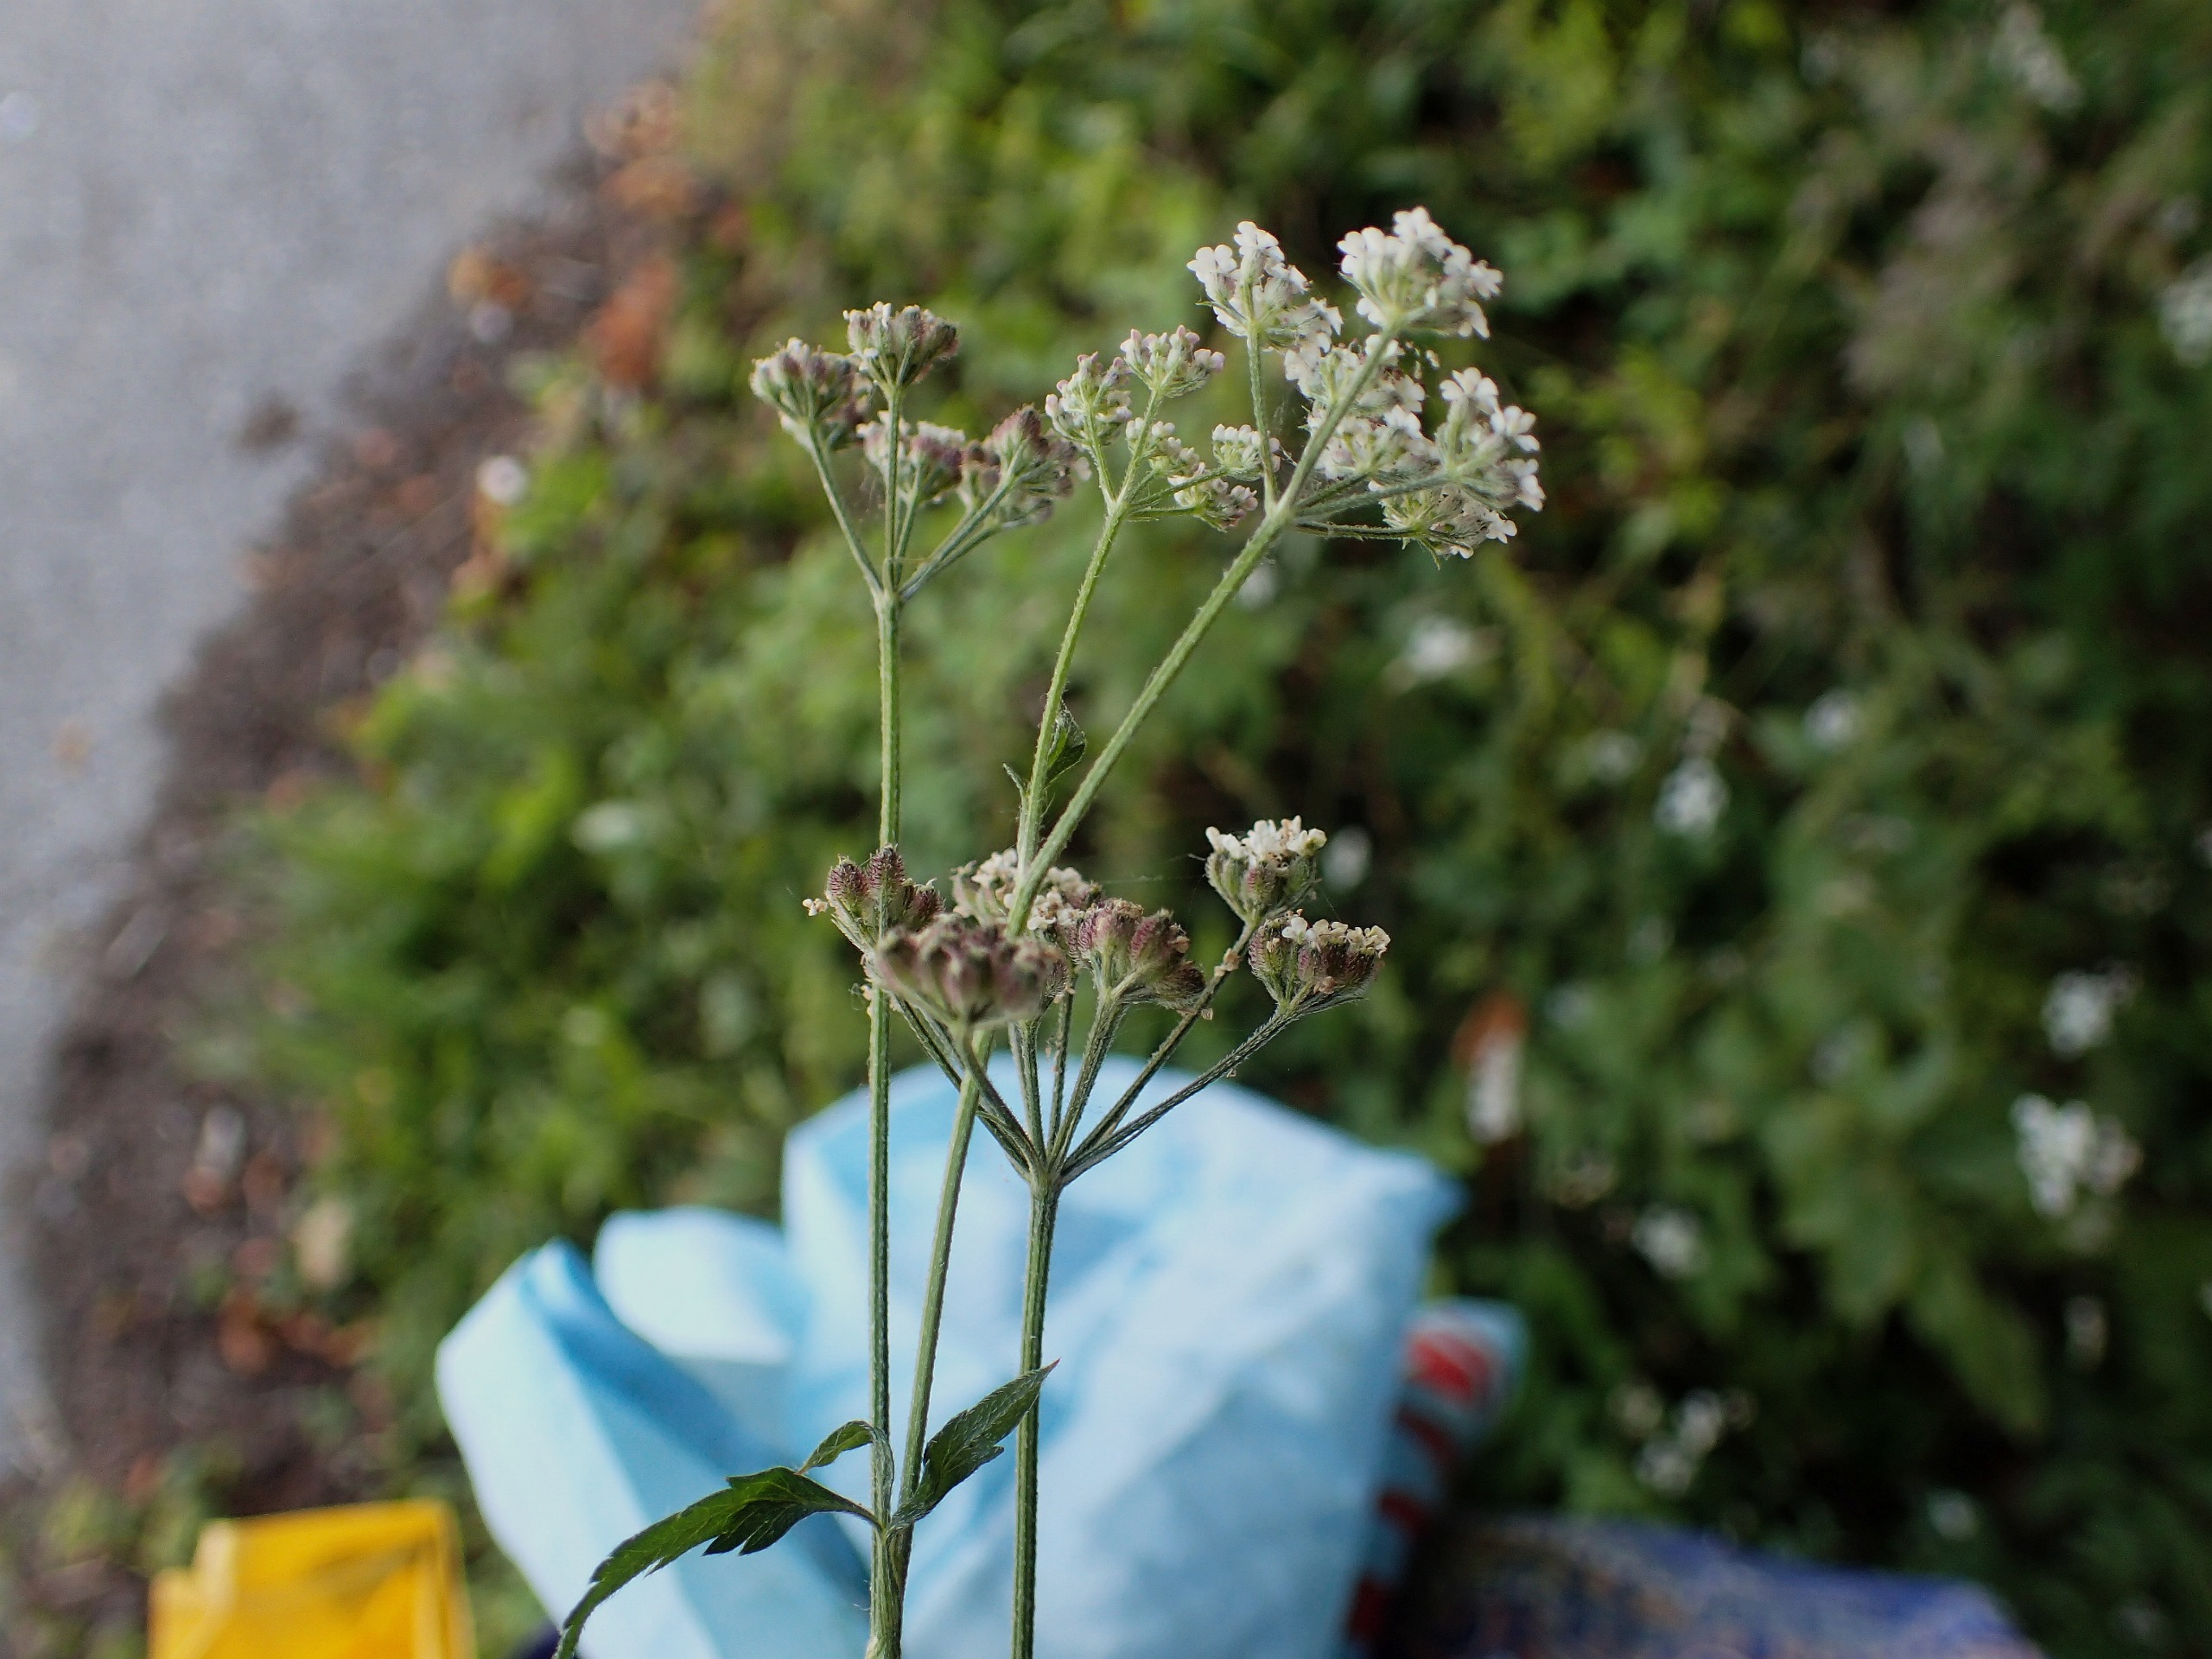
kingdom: Plantae
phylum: Tracheophyta
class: Magnoliopsida
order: Apiales
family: Apiaceae
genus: Torilis
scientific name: Torilis japonica
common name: Hvas randfrø
